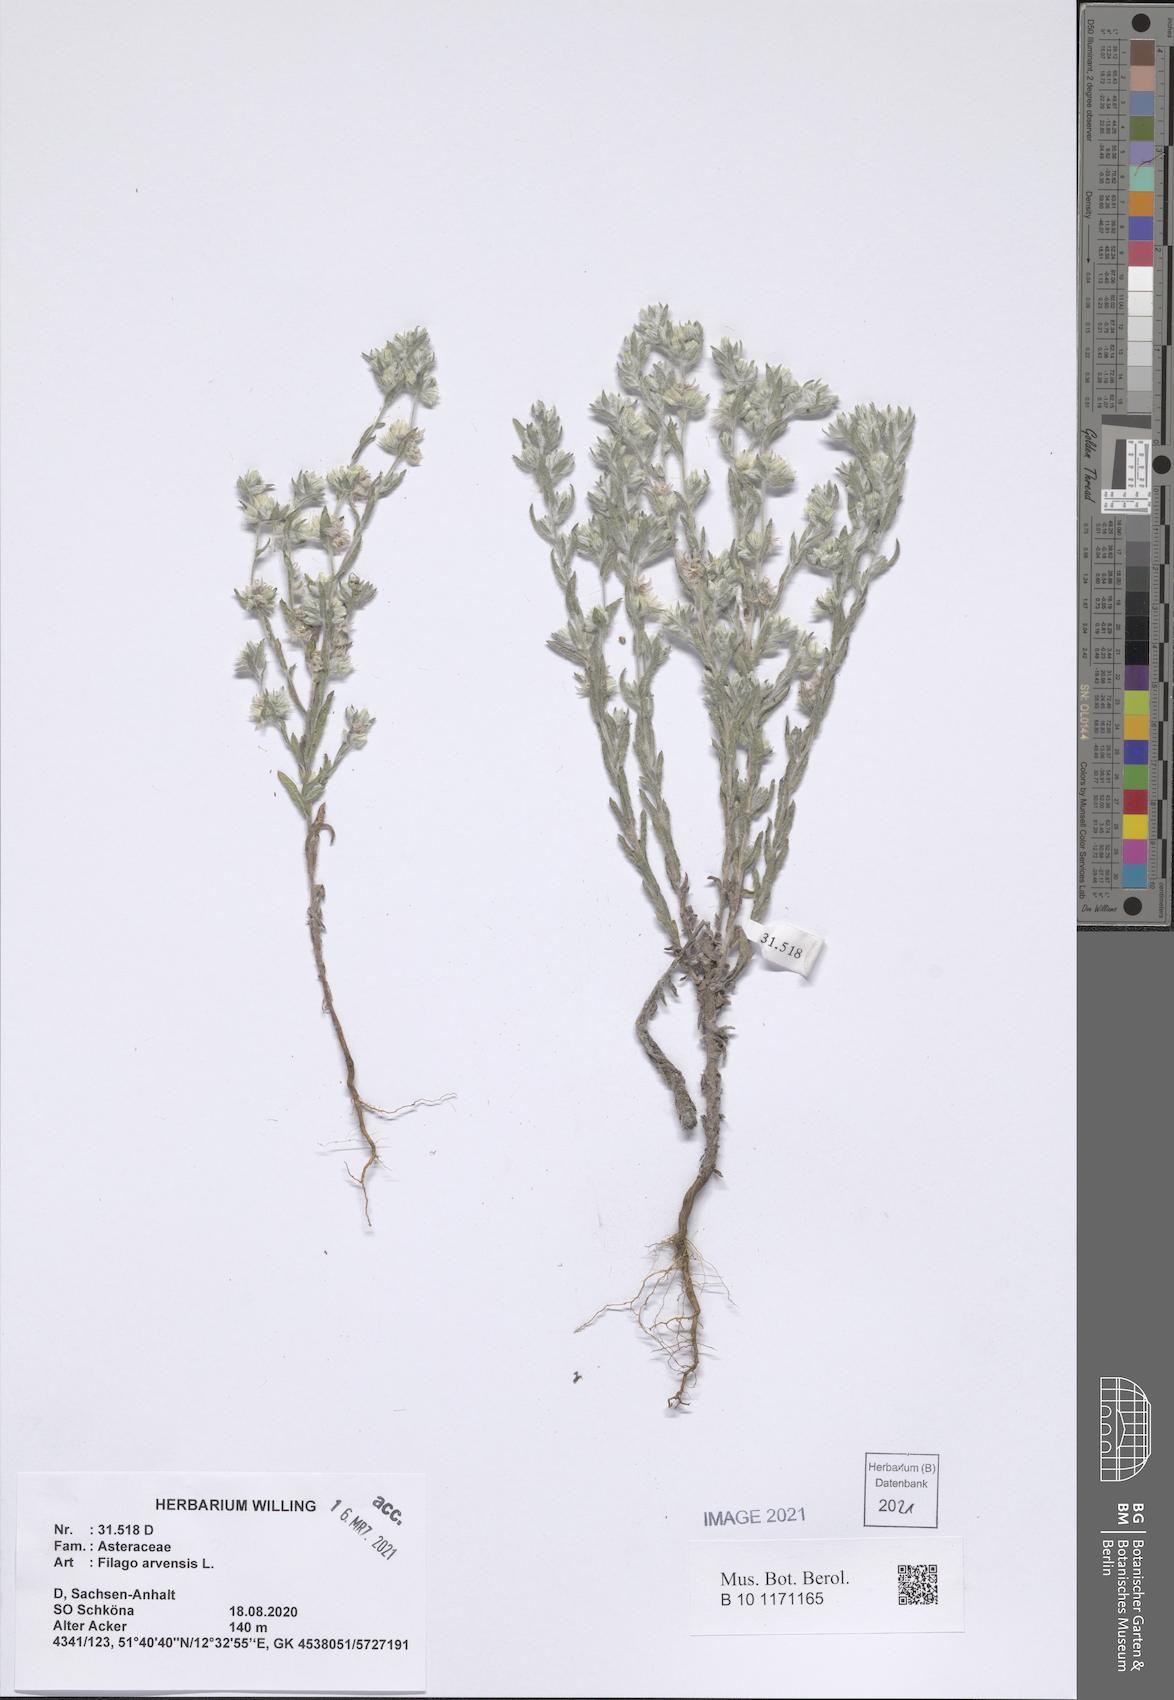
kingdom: Plantae
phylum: Tracheophyta
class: Magnoliopsida
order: Asterales
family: Asteraceae
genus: Filago
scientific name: Filago arvensis
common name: Field cudweed
